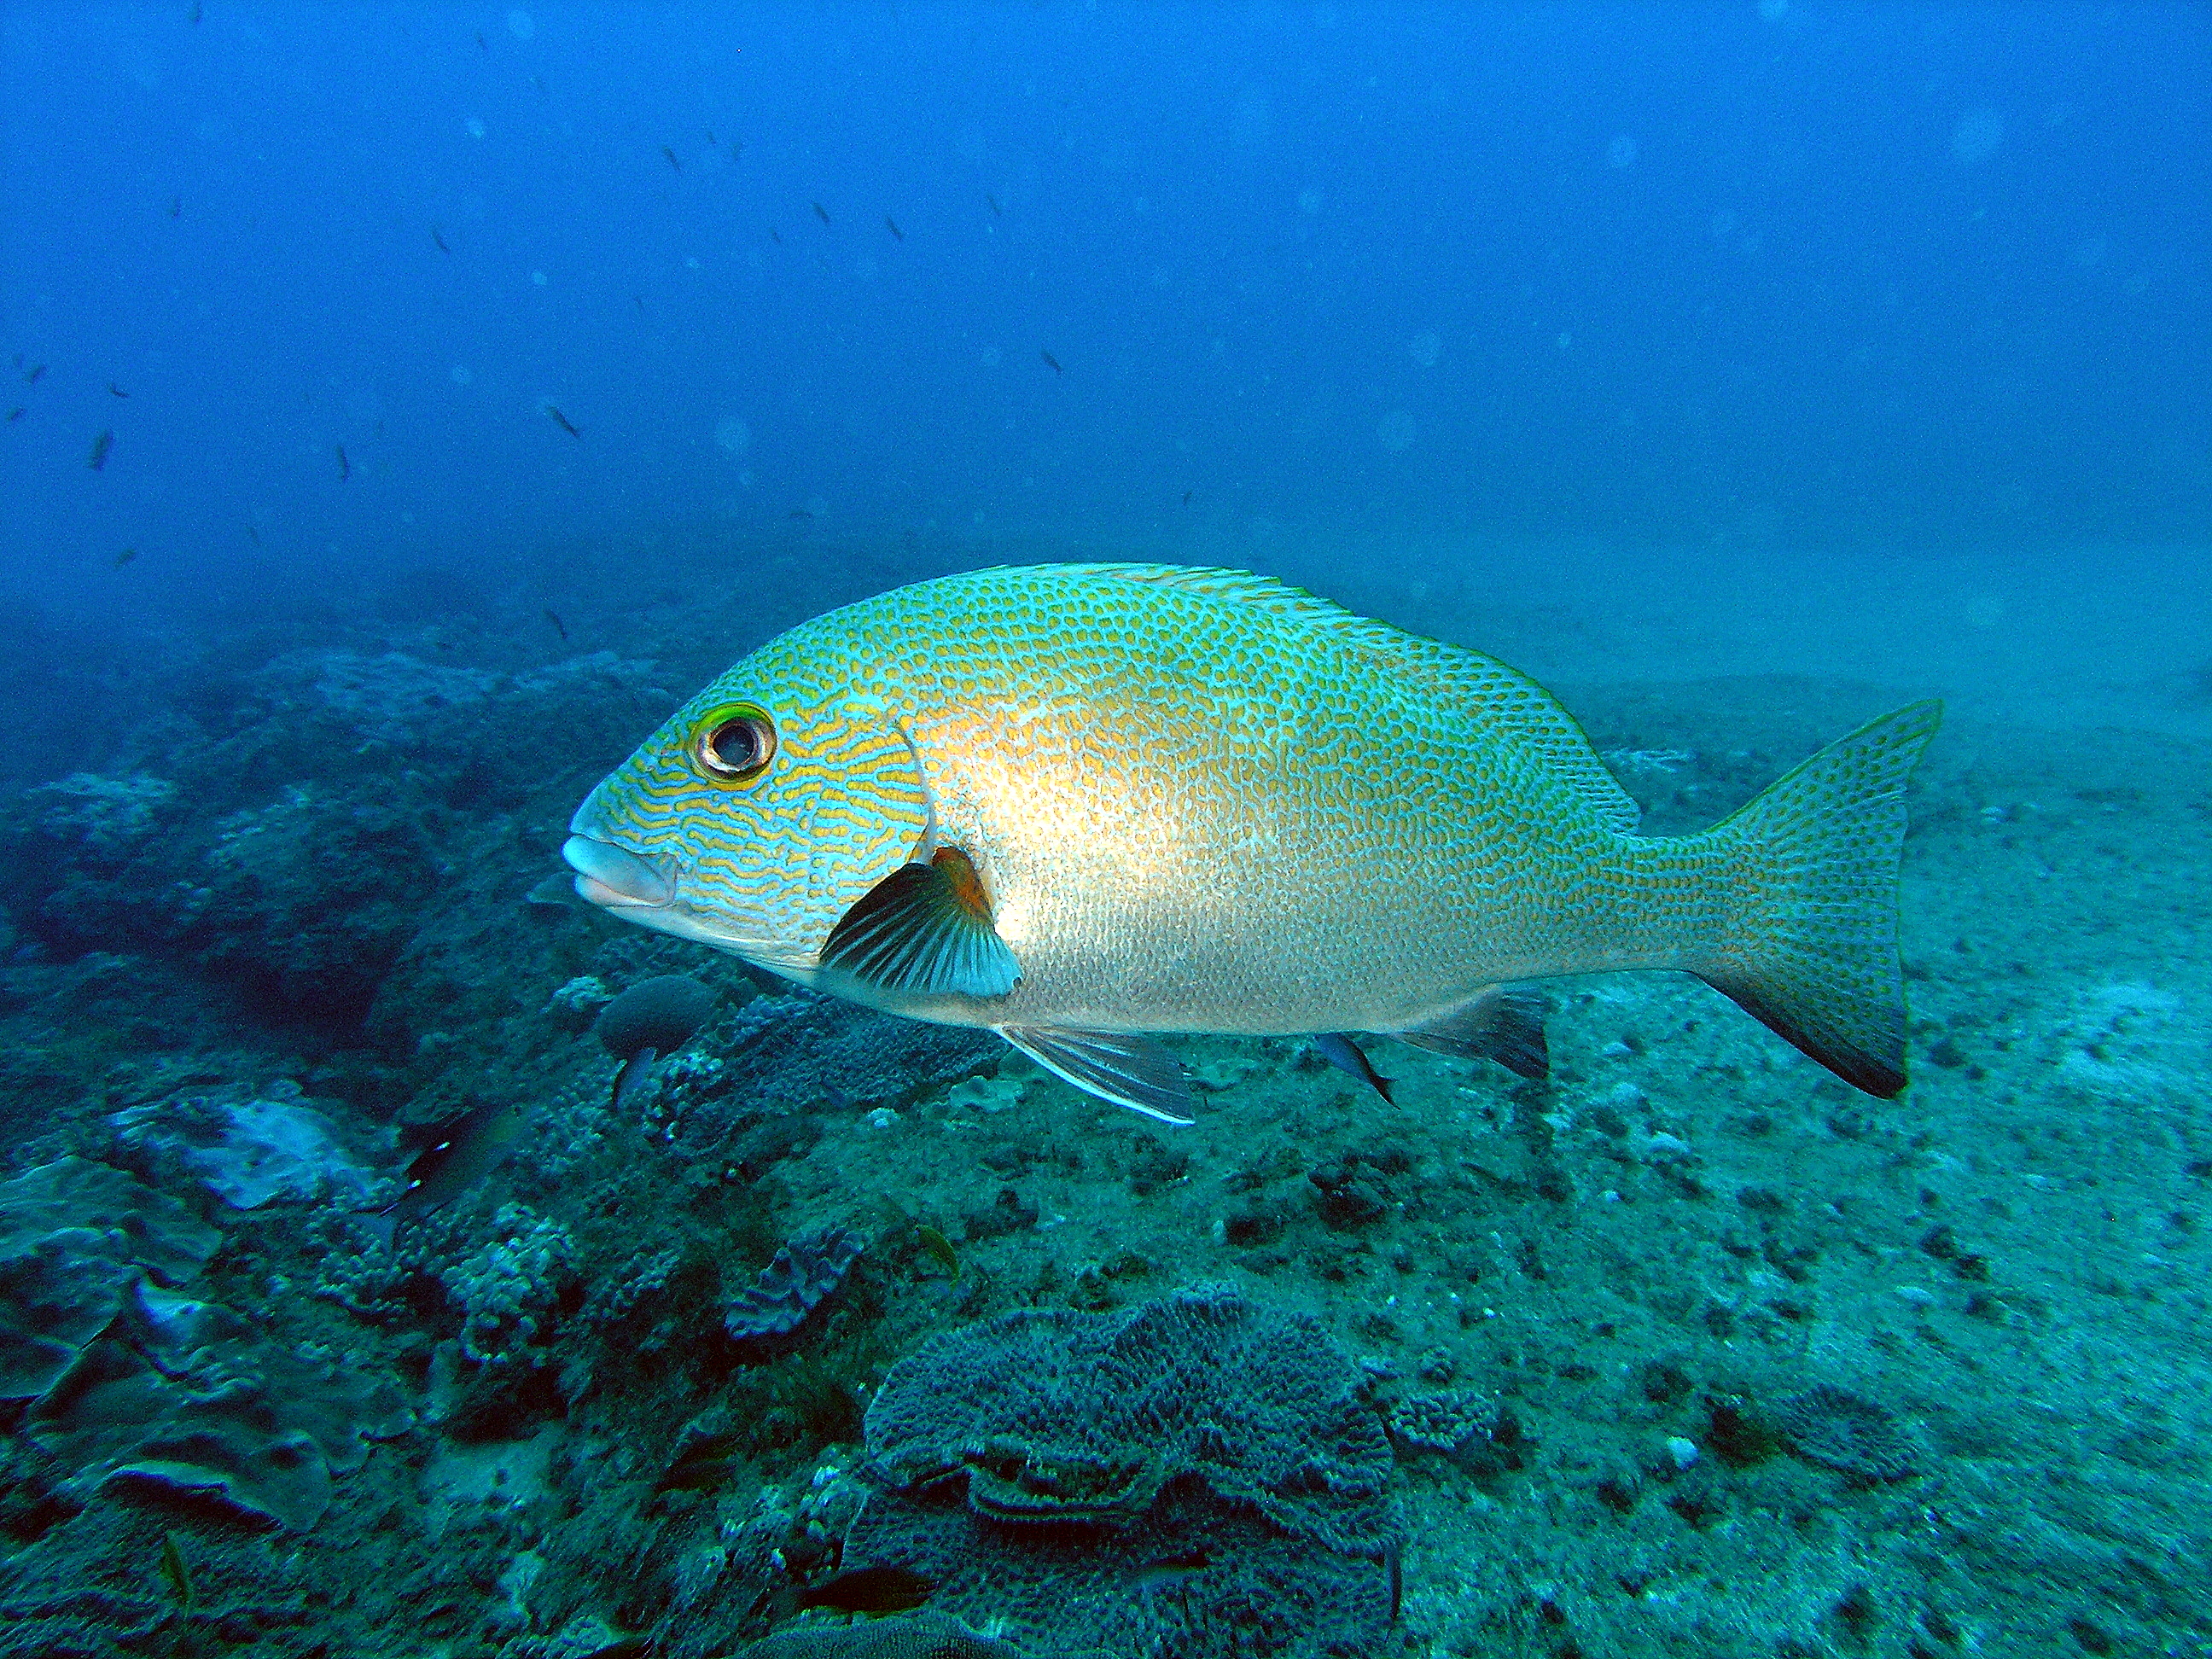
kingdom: Animalia
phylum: Chordata
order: Perciformes
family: Haemulidae
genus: Plectorhinchus
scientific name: Plectorhinchus flavomaculatus
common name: Netted sweetlips
